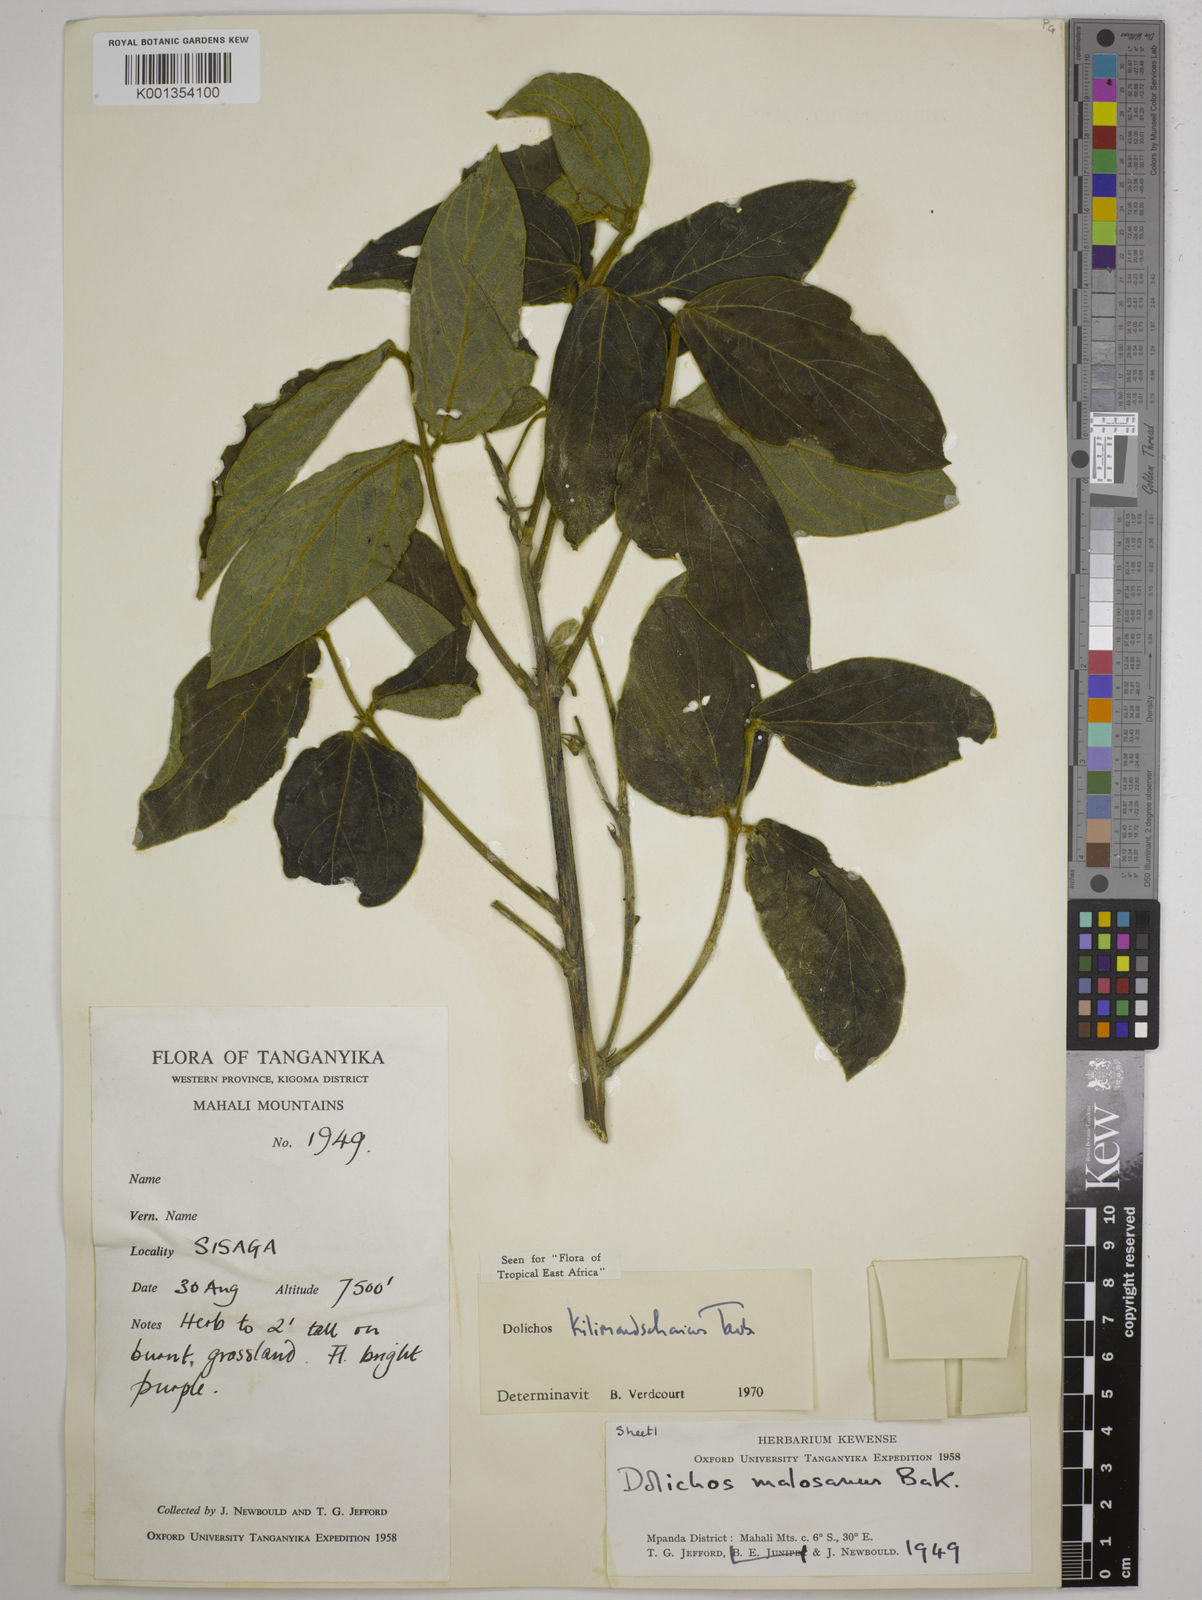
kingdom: Plantae
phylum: Tracheophyta
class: Magnoliopsida
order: Fabales
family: Fabaceae
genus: Dolichos
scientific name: Dolichos kilimandscharicus
